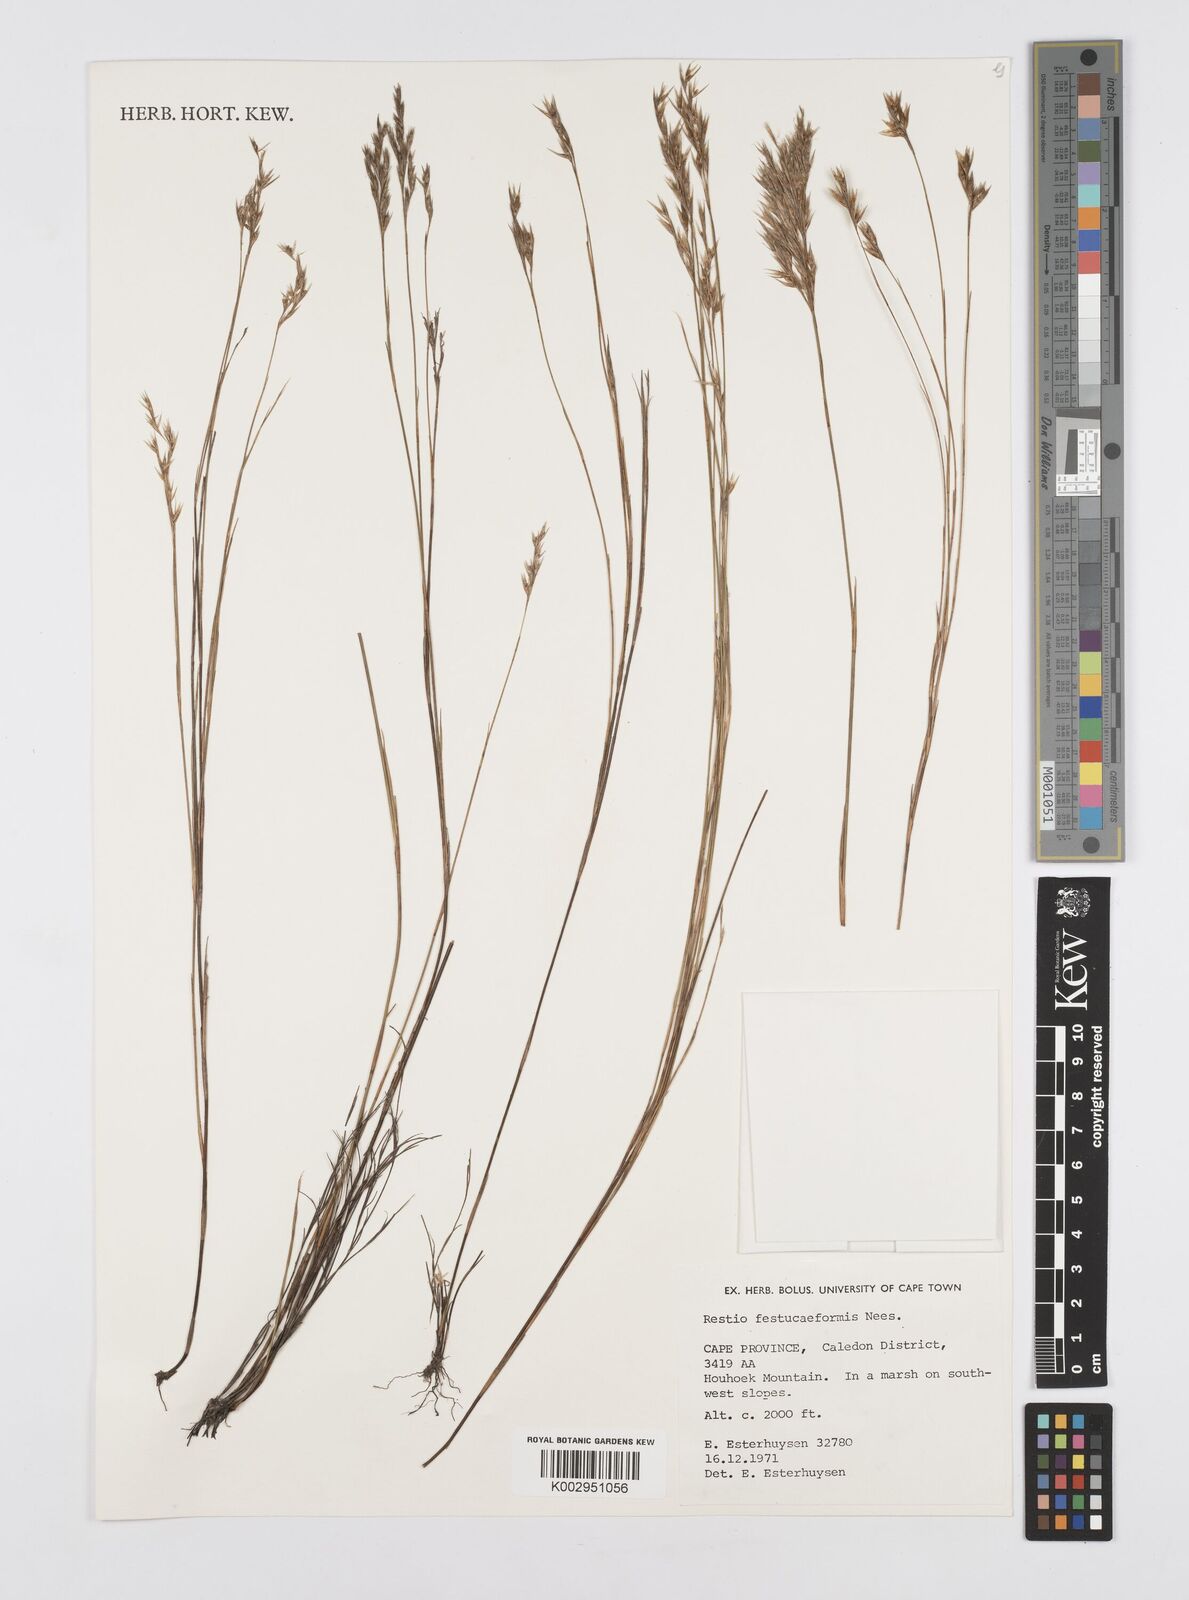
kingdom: Plantae
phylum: Tracheophyta
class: Liliopsida
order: Poales
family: Restionaceae
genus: Restio
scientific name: Restio festuciformis
